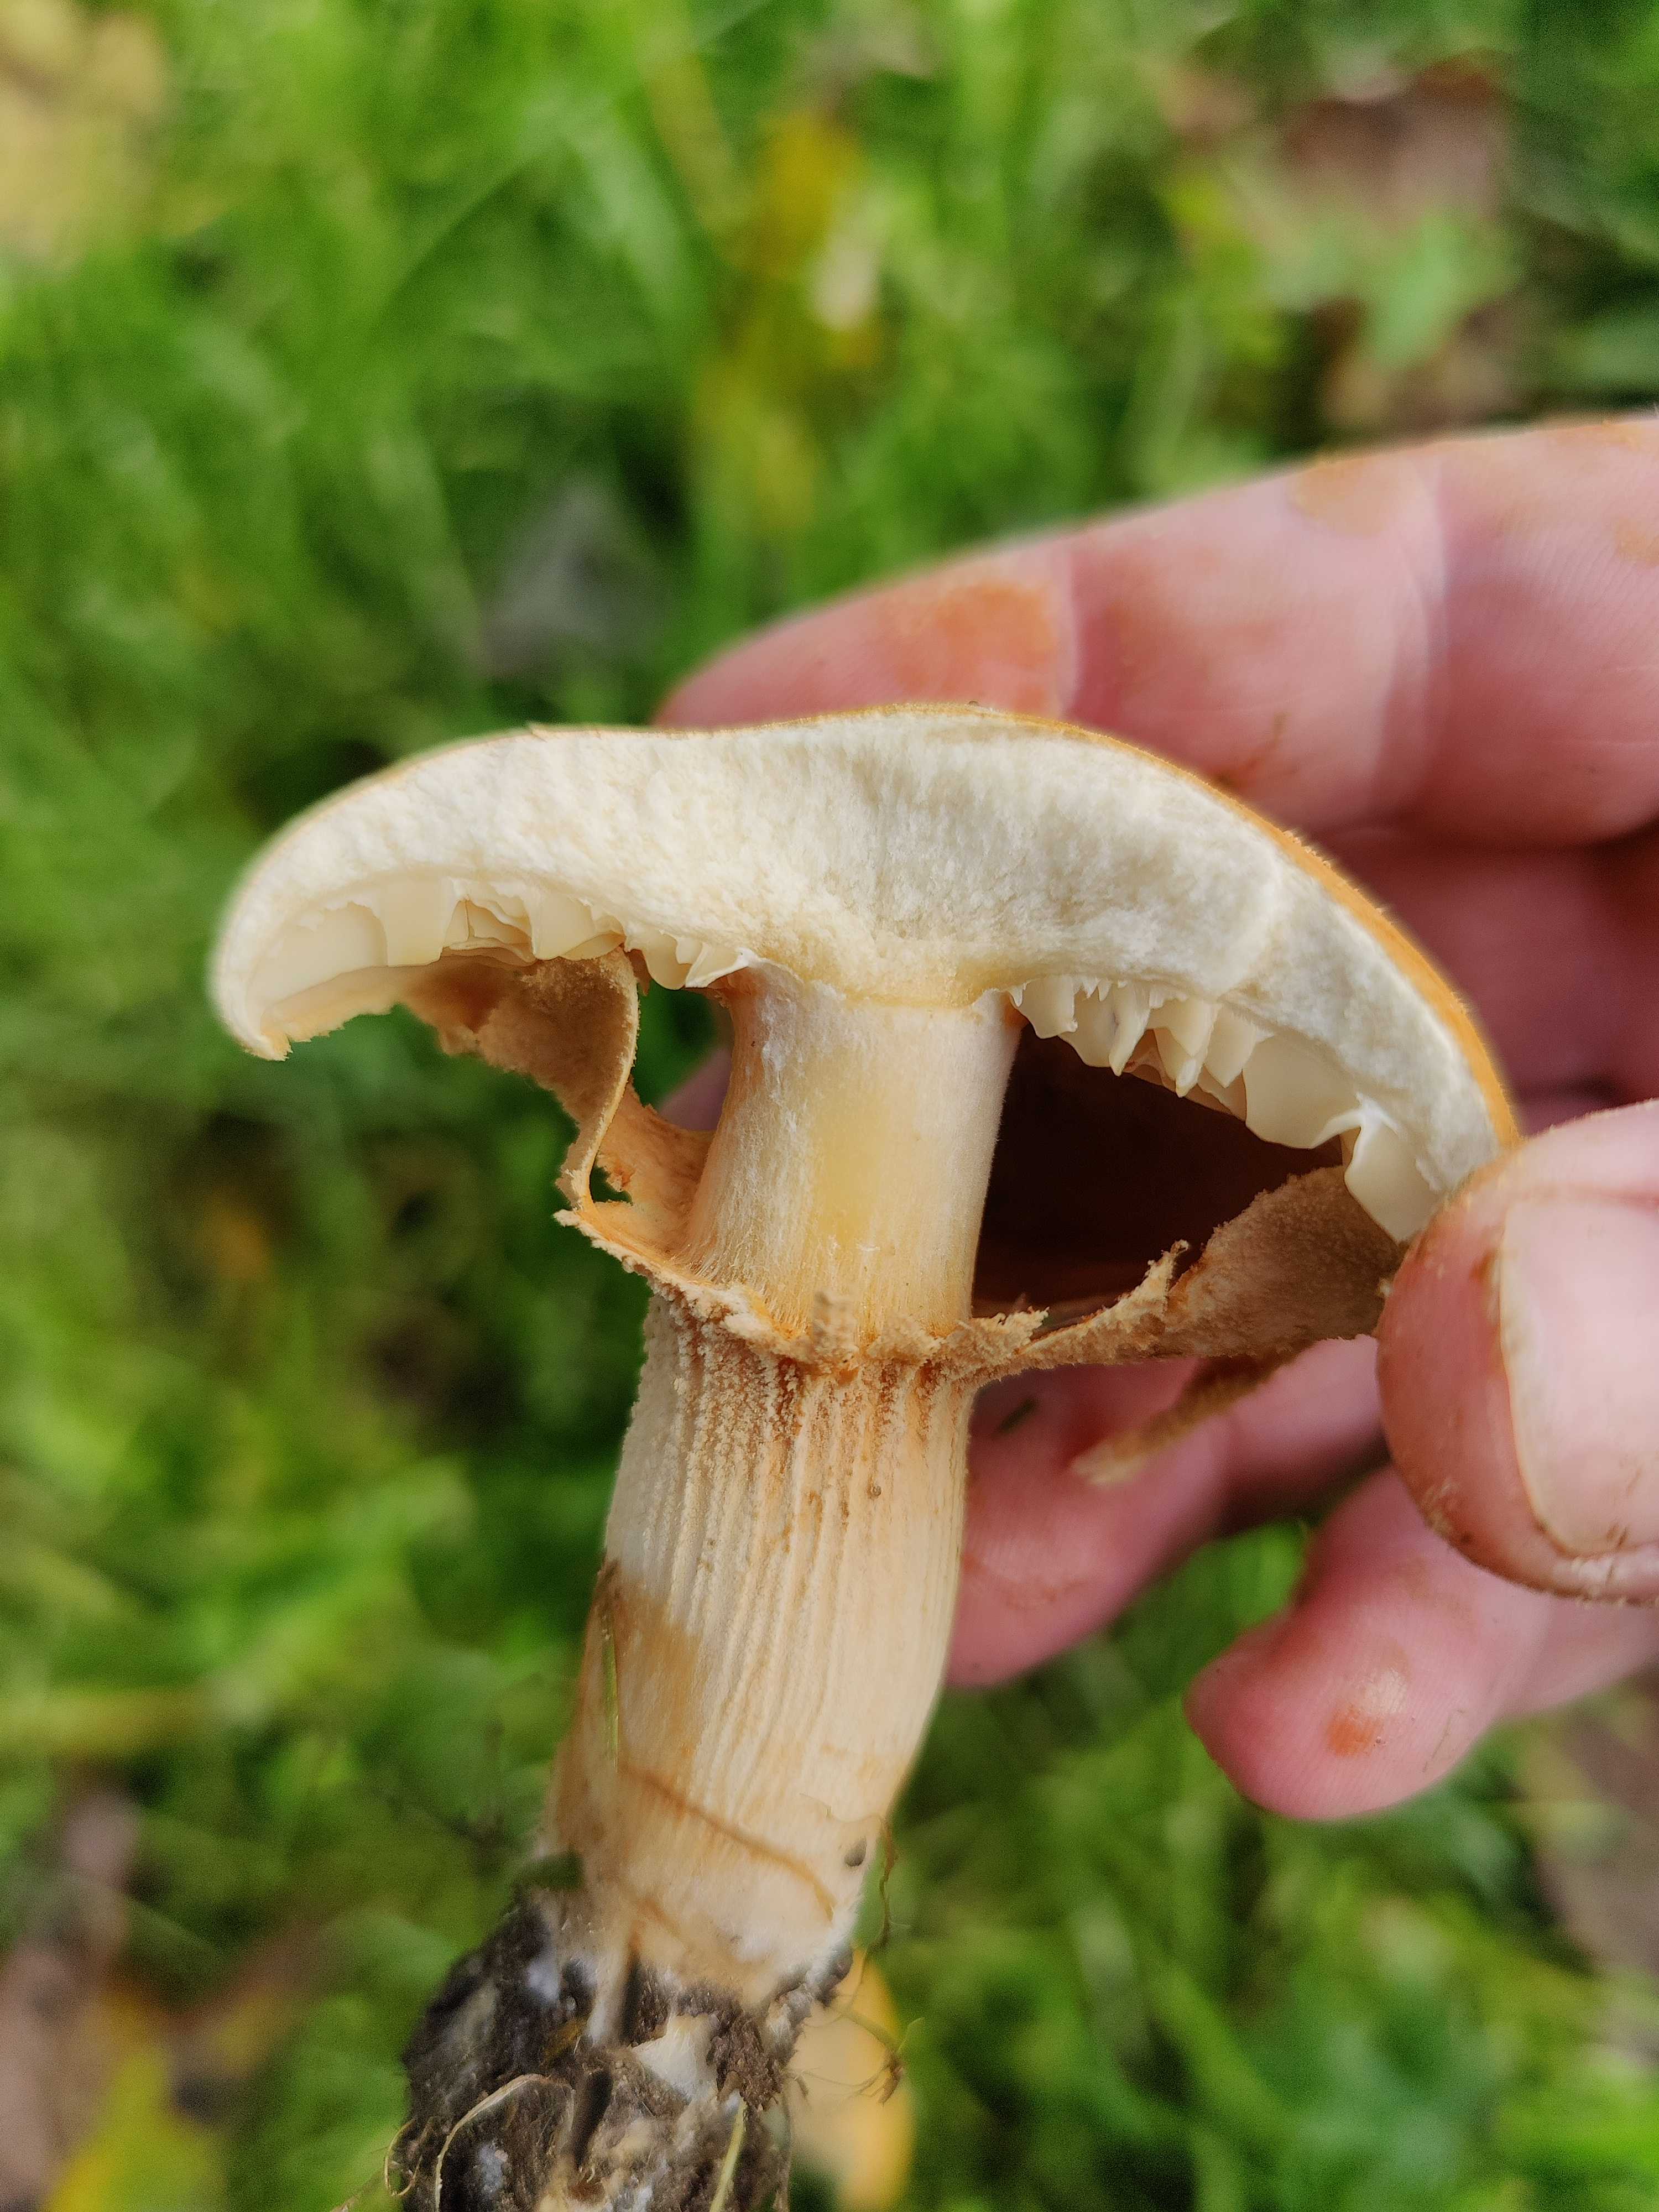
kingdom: Fungi
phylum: Basidiomycota
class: Agaricomycetes
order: Agaricales
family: Tricholomataceae
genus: Phaeolepiota
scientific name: Phaeolepiota aurea
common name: gyldenhat
